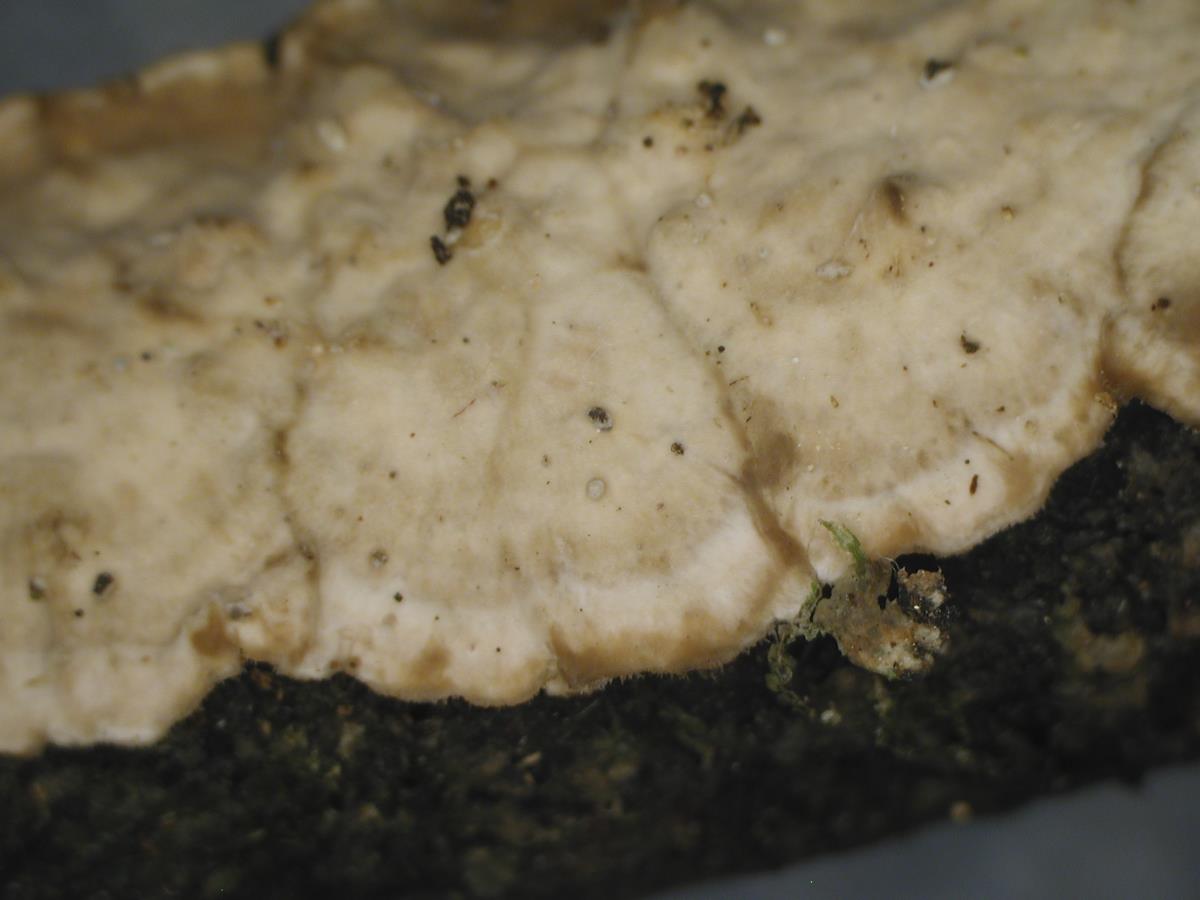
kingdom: Fungi
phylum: Basidiomycota
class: Agaricomycetes
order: Russulales
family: Stereaceae
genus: Stereum
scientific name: Stereum vellereum
